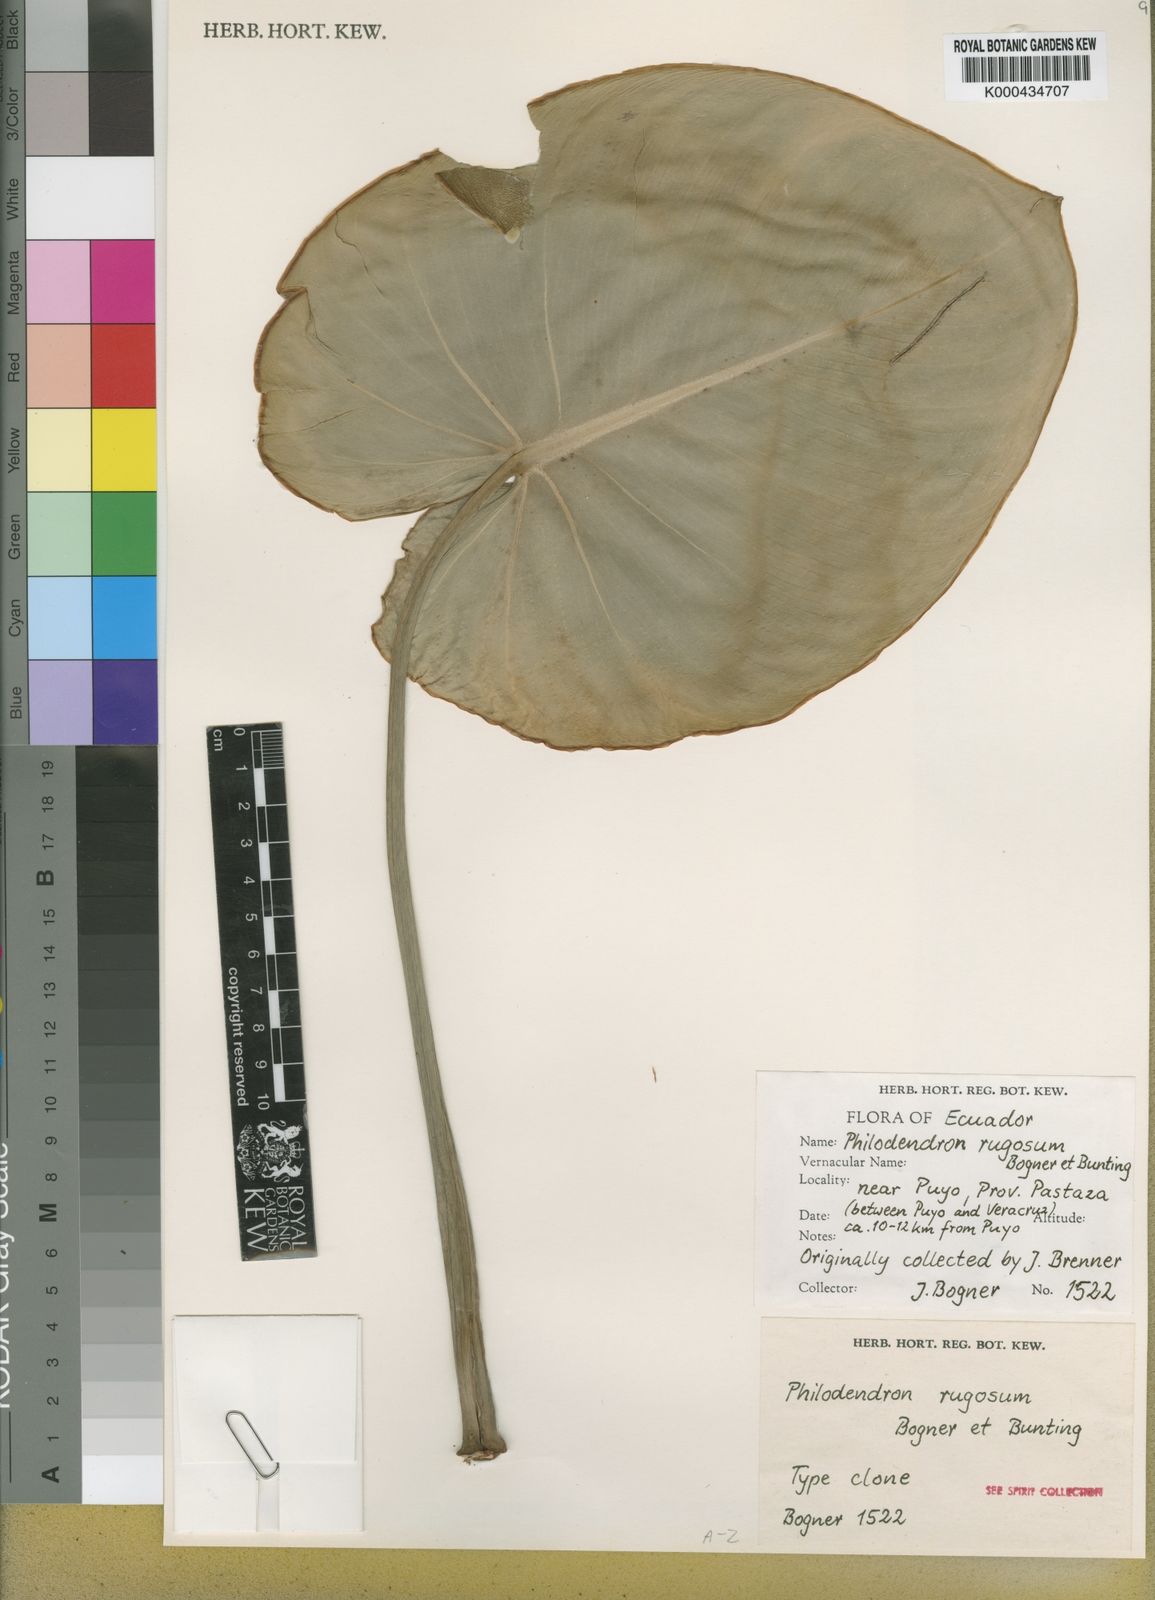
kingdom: Plantae
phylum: Tracheophyta
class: Liliopsida
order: Alismatales
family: Araceae
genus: Philodendron
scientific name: Philodendron rugosum
